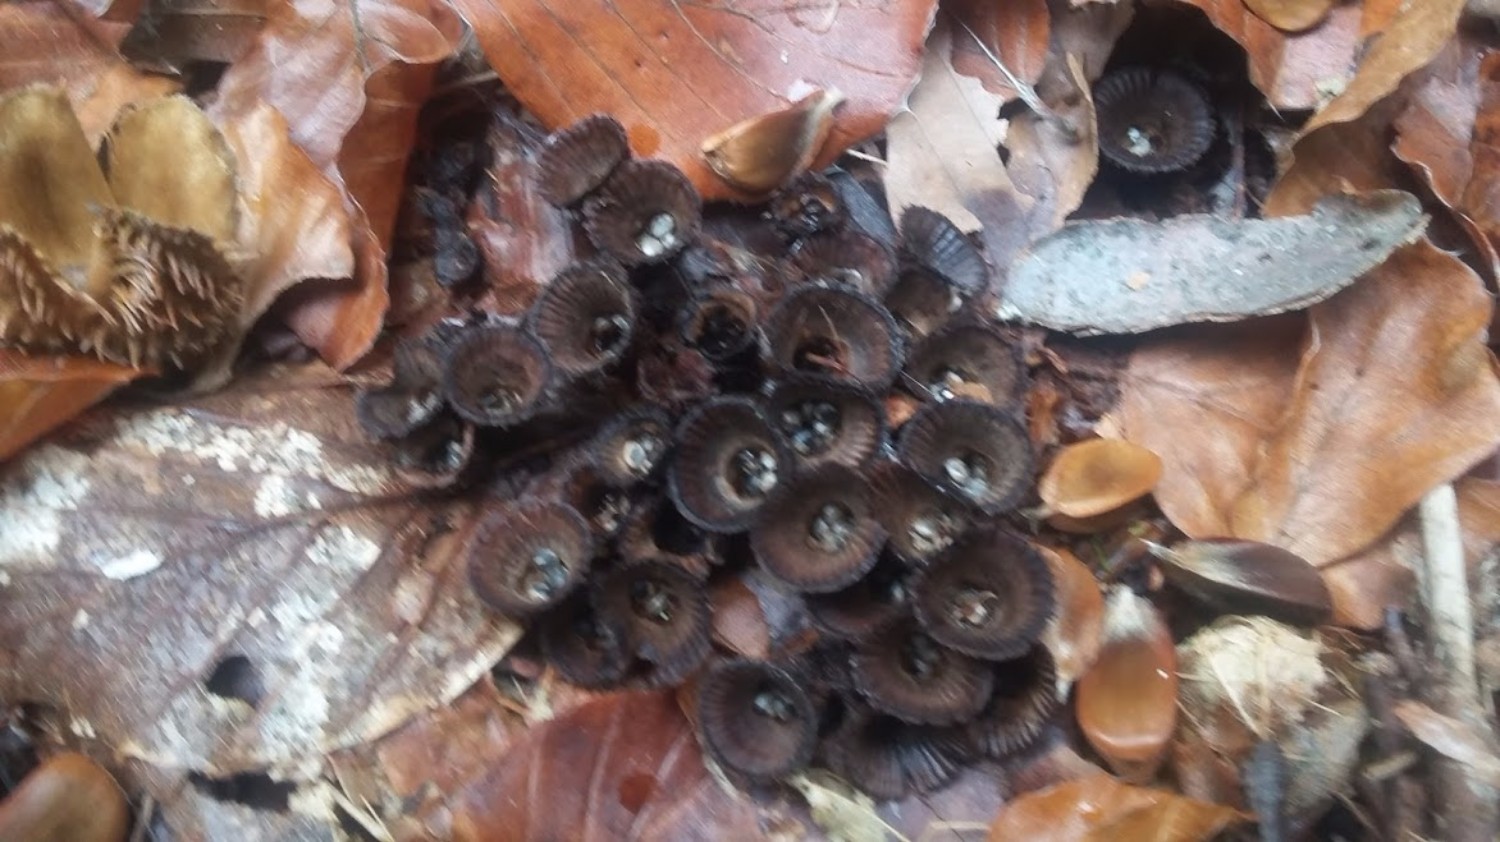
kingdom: Fungi
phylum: Basidiomycota
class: Agaricomycetes
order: Agaricales
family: Agaricaceae
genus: Cyathus
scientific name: Cyathus striatus
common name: stribet redesvamp
